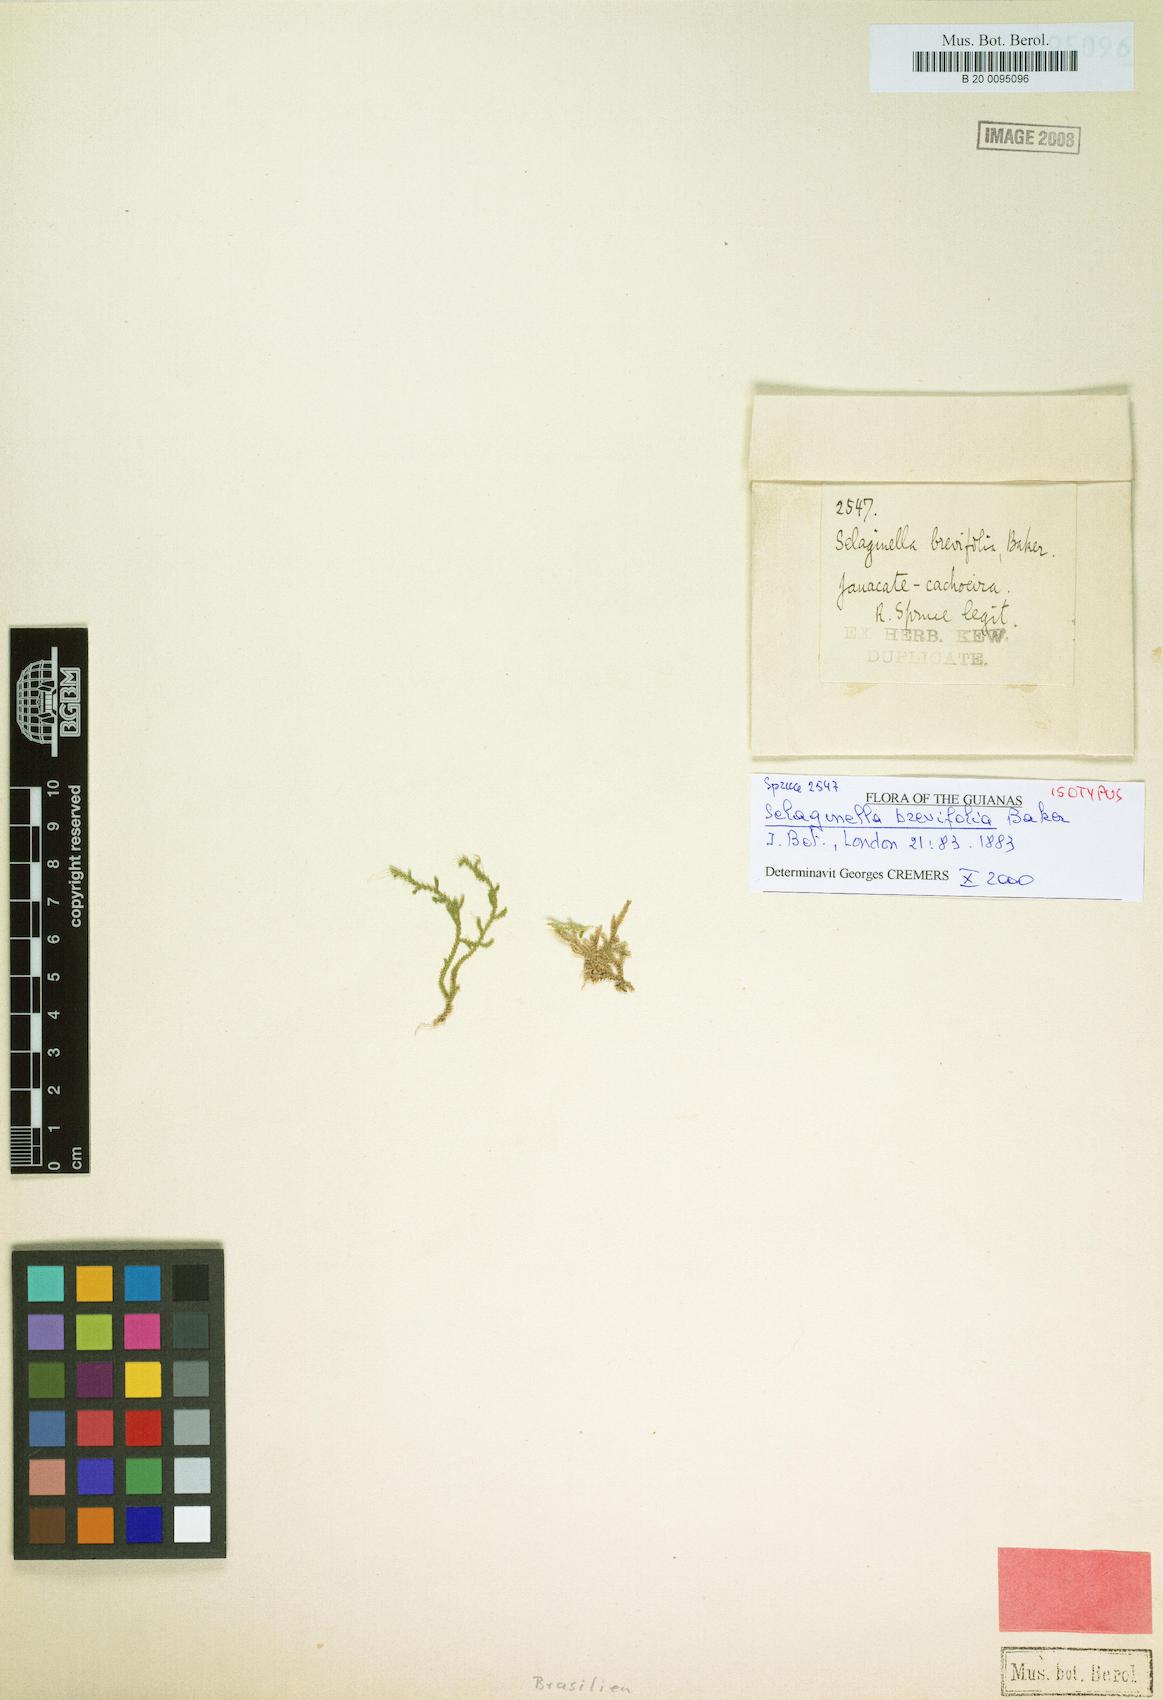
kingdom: Plantae
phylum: Tracheophyta
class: Lycopodiopsida
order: Selaginellales
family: Selaginellaceae
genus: Selaginella
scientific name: Selaginella brevifolia
